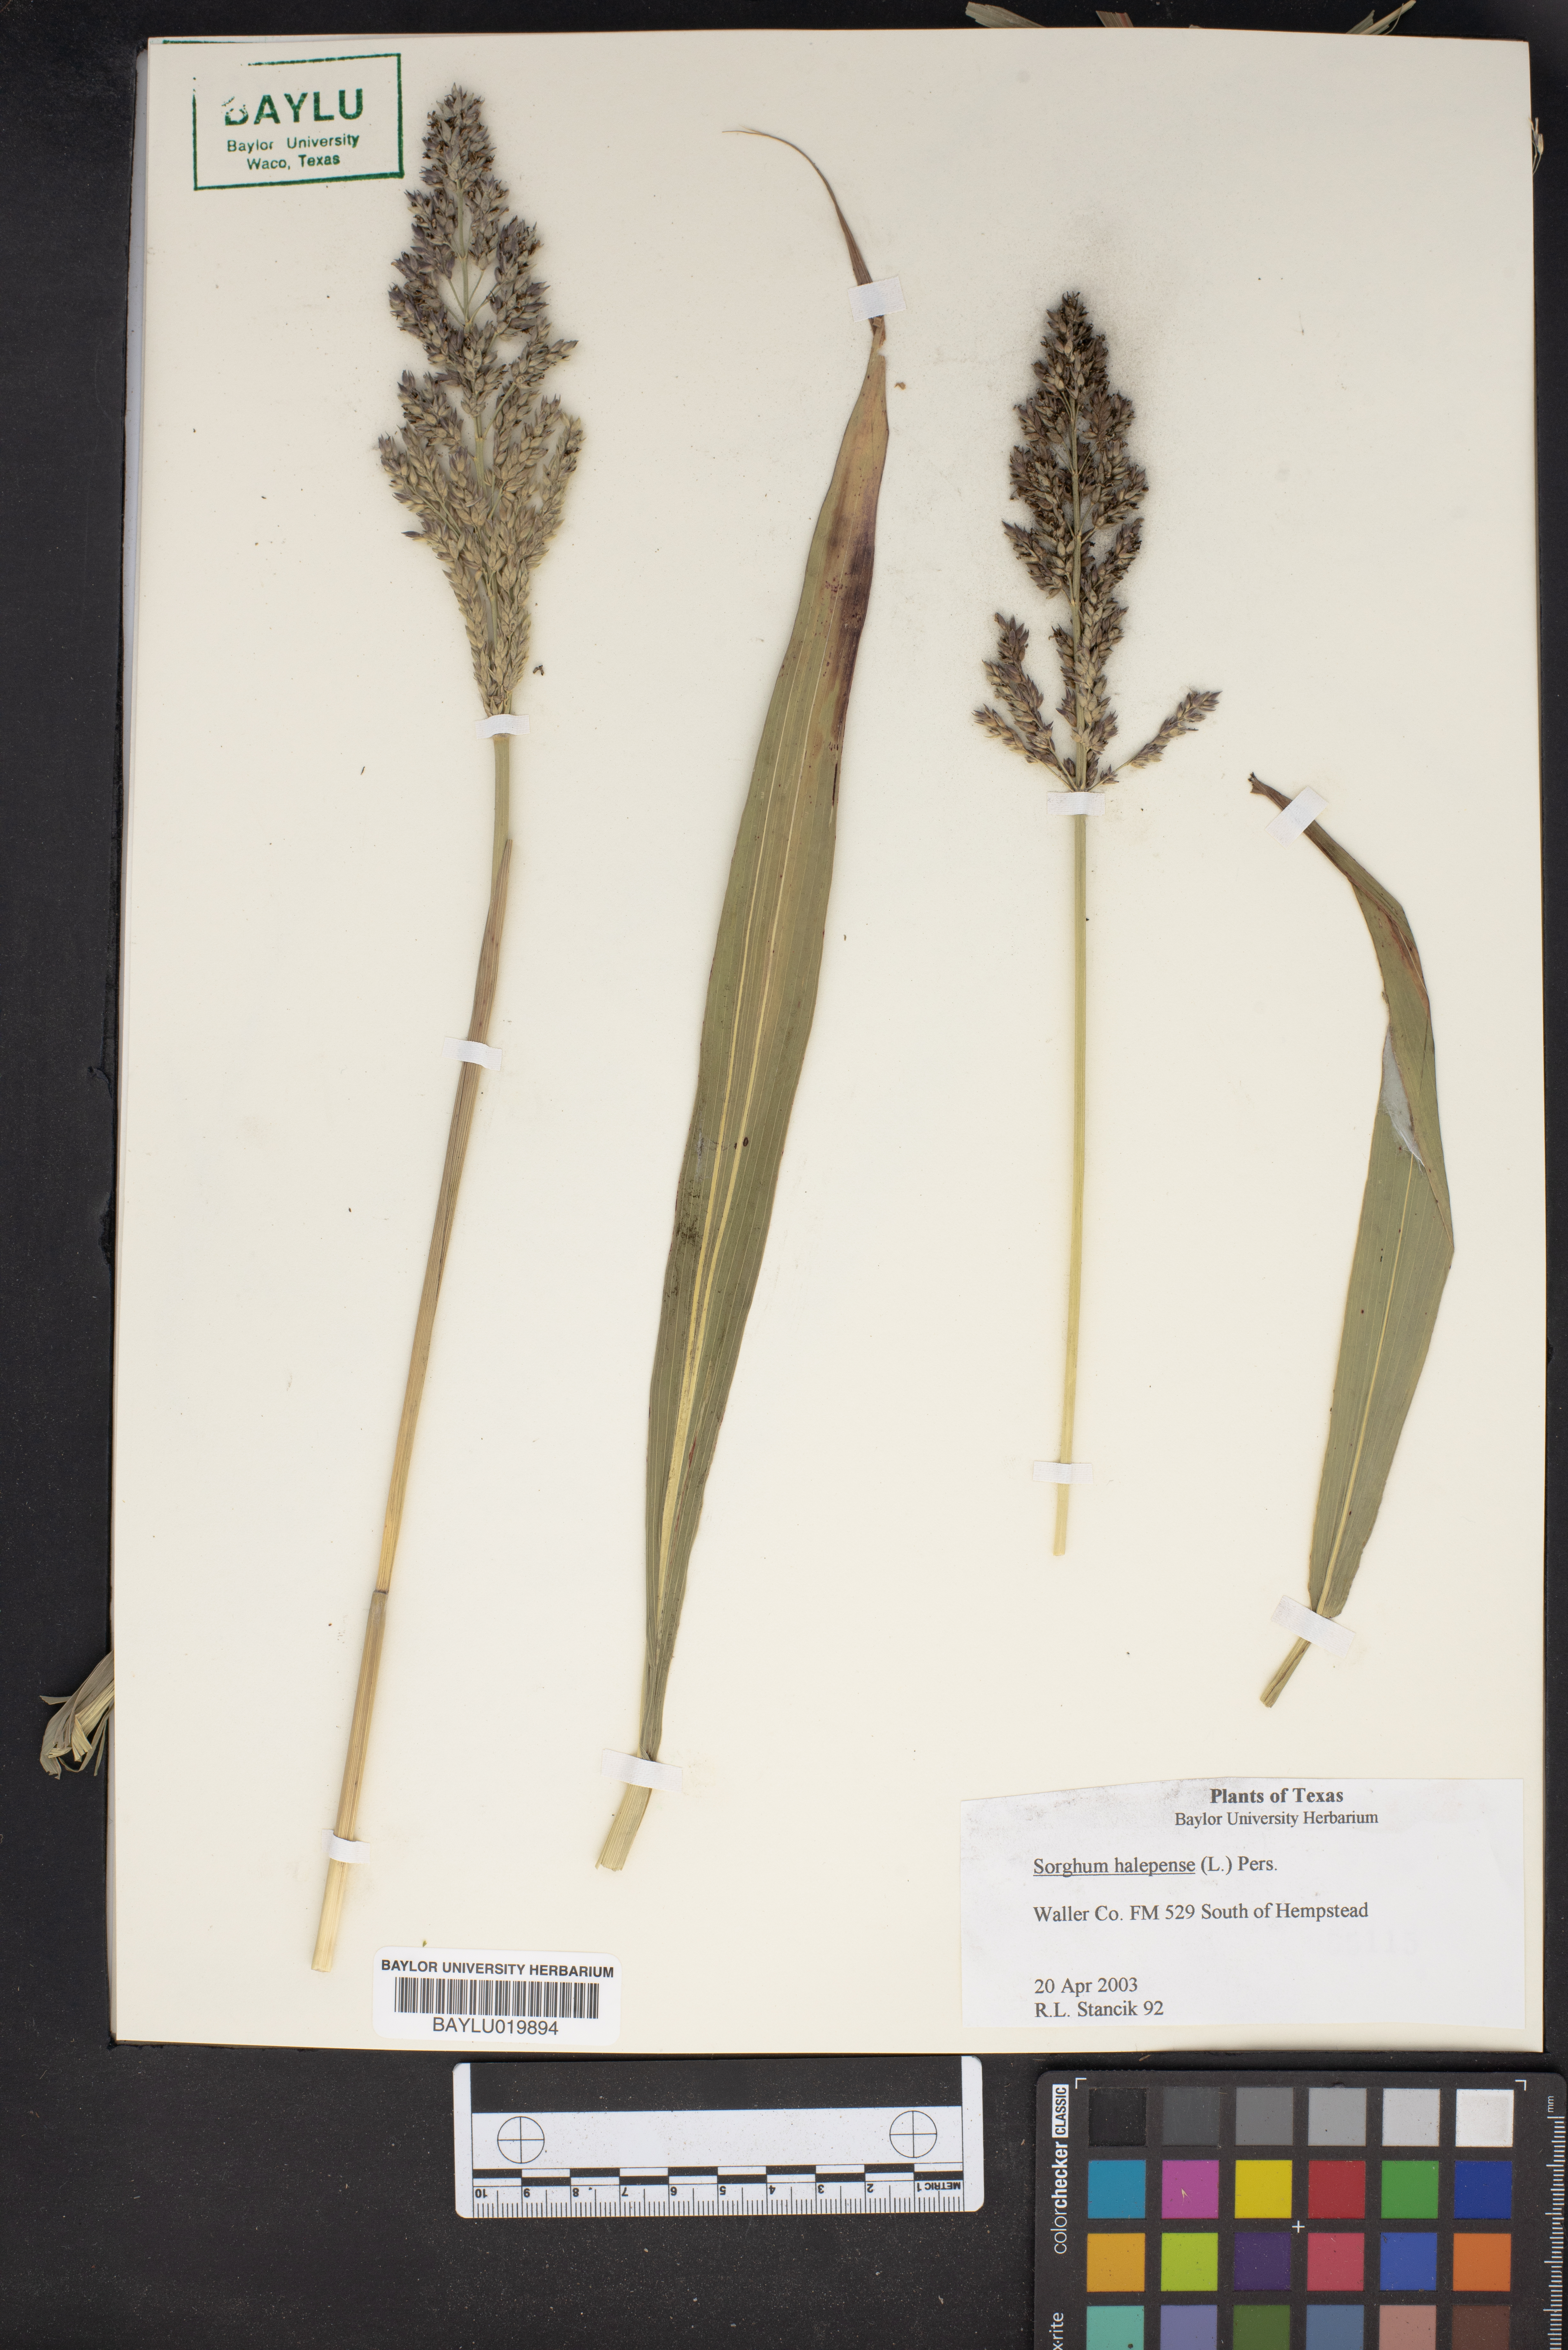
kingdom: Plantae
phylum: Tracheophyta
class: Liliopsida
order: Poales
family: Poaceae
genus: Sorghum
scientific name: Sorghum halepense
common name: Johnson-grass
